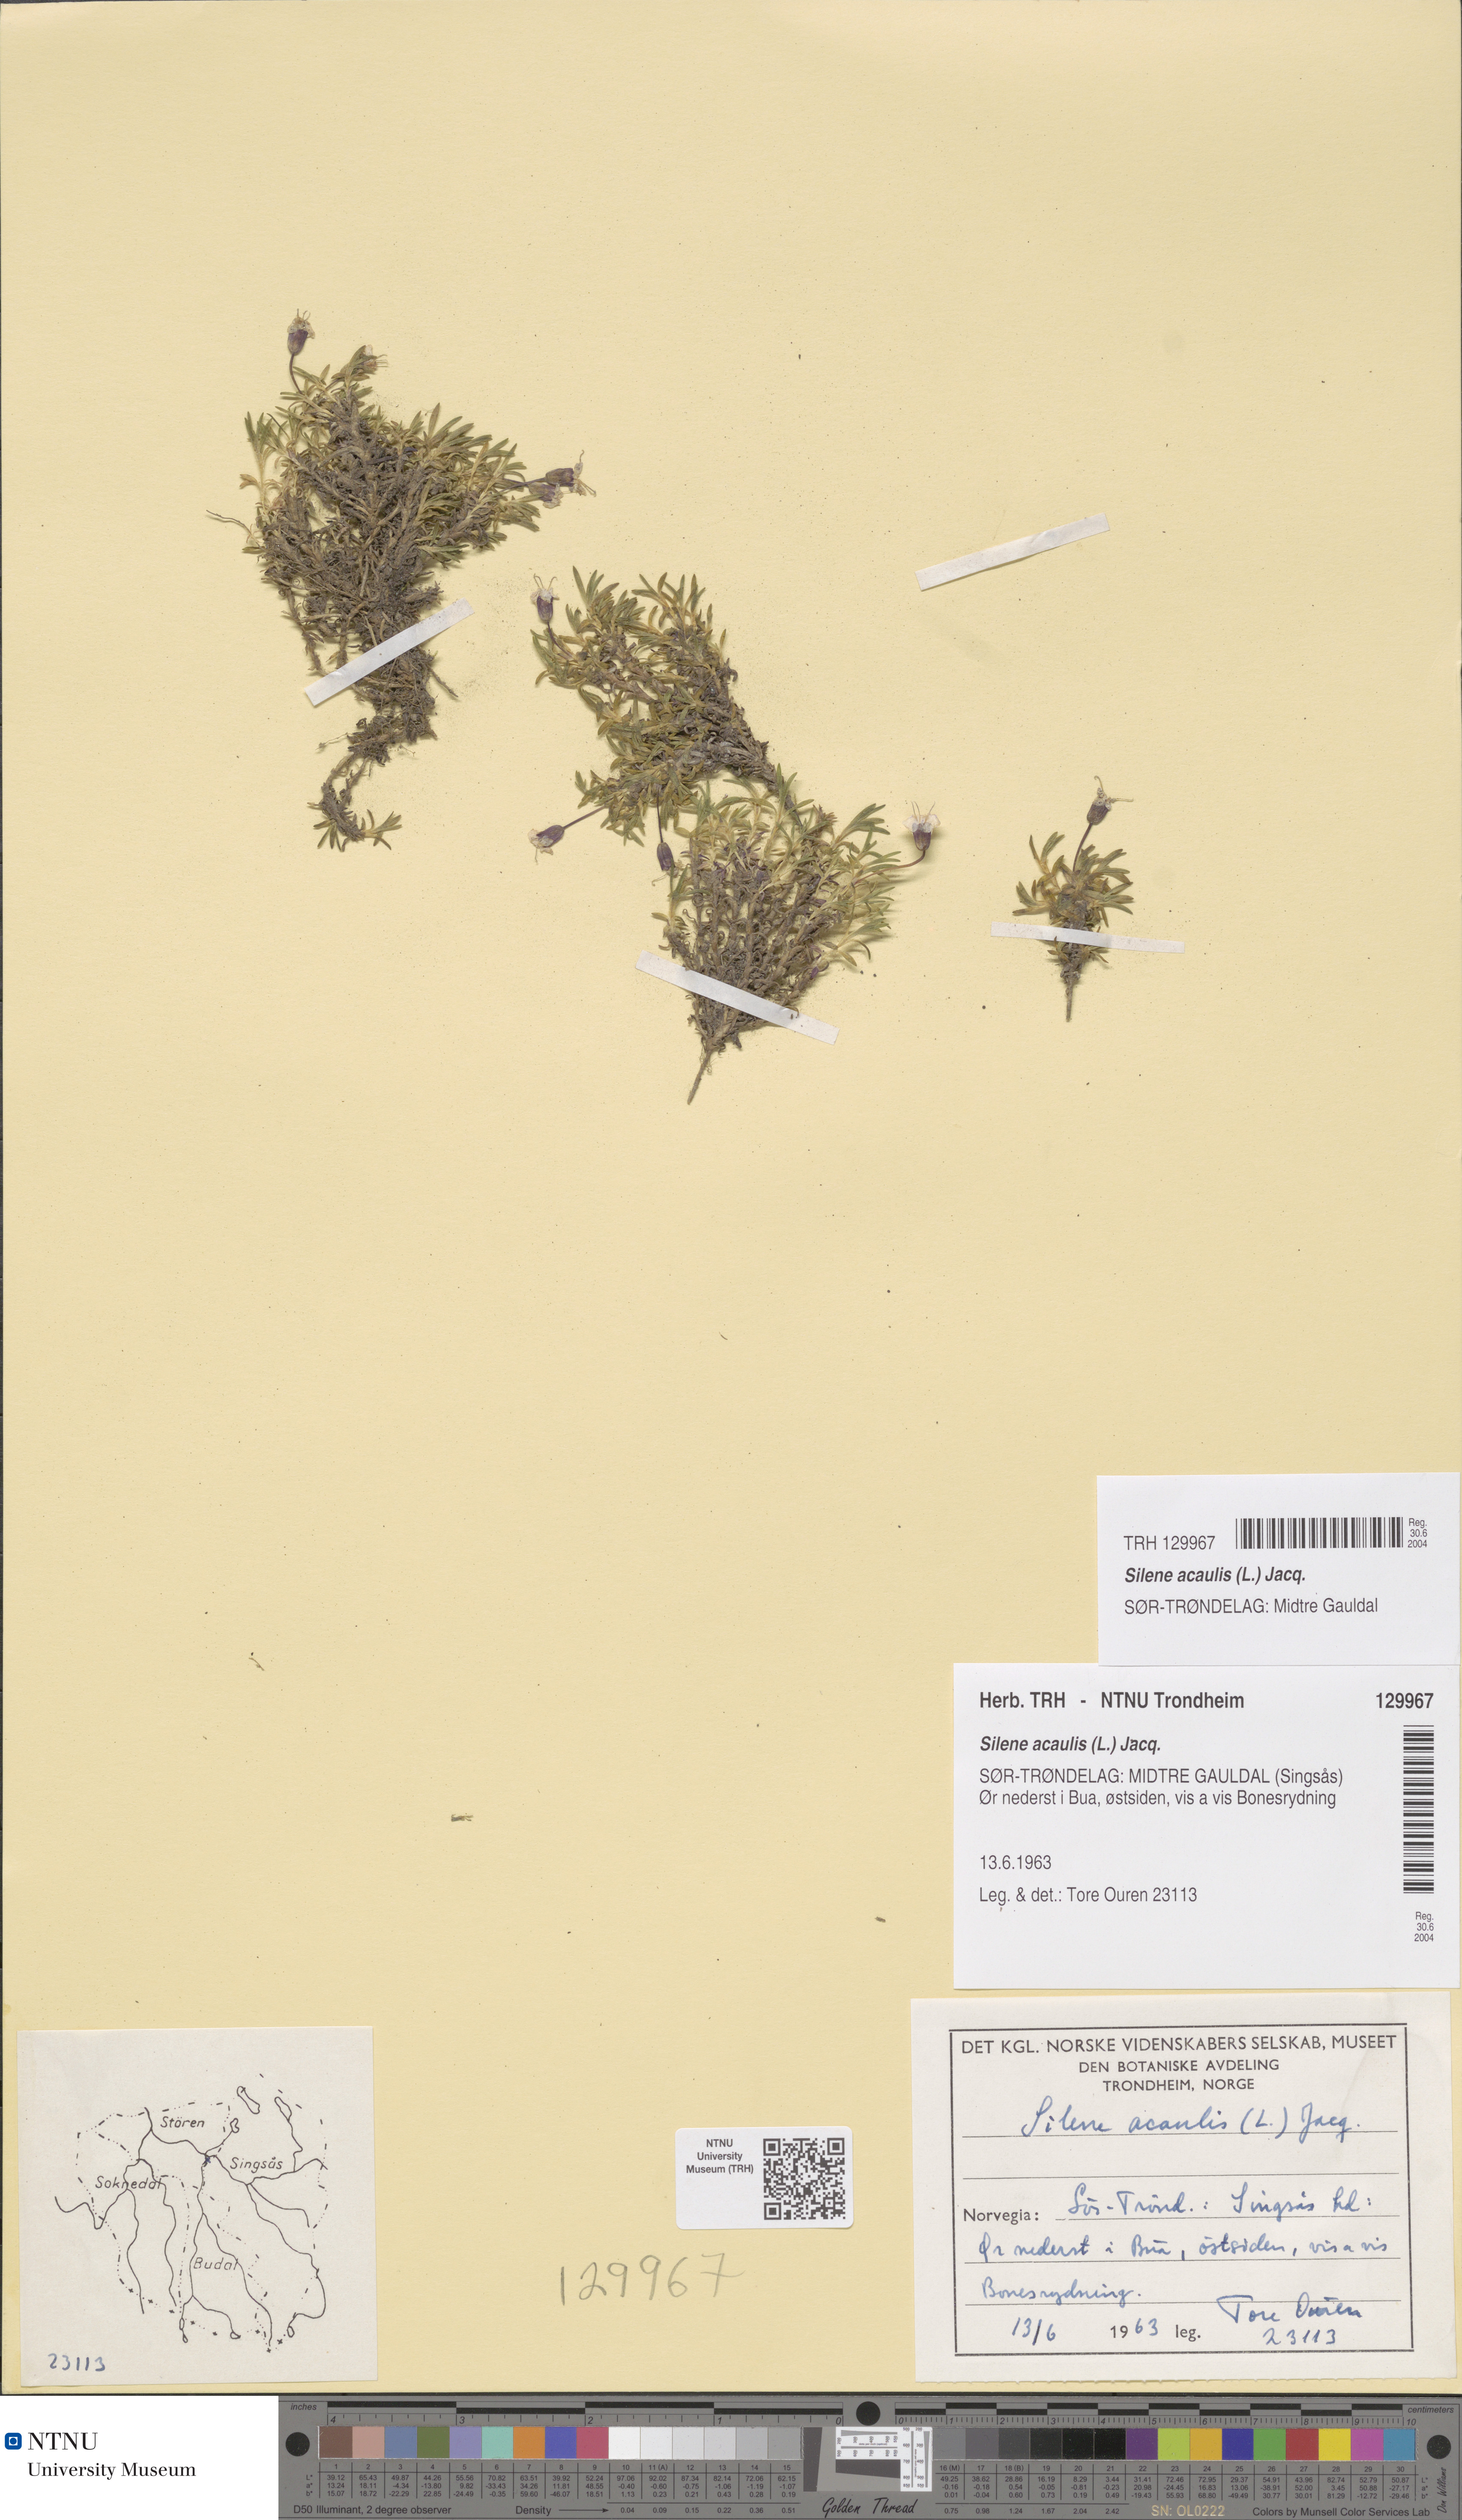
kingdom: Plantae
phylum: Tracheophyta
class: Magnoliopsida
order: Caryophyllales
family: Caryophyllaceae
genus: Silene
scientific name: Silene acaulis
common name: Moss campion
